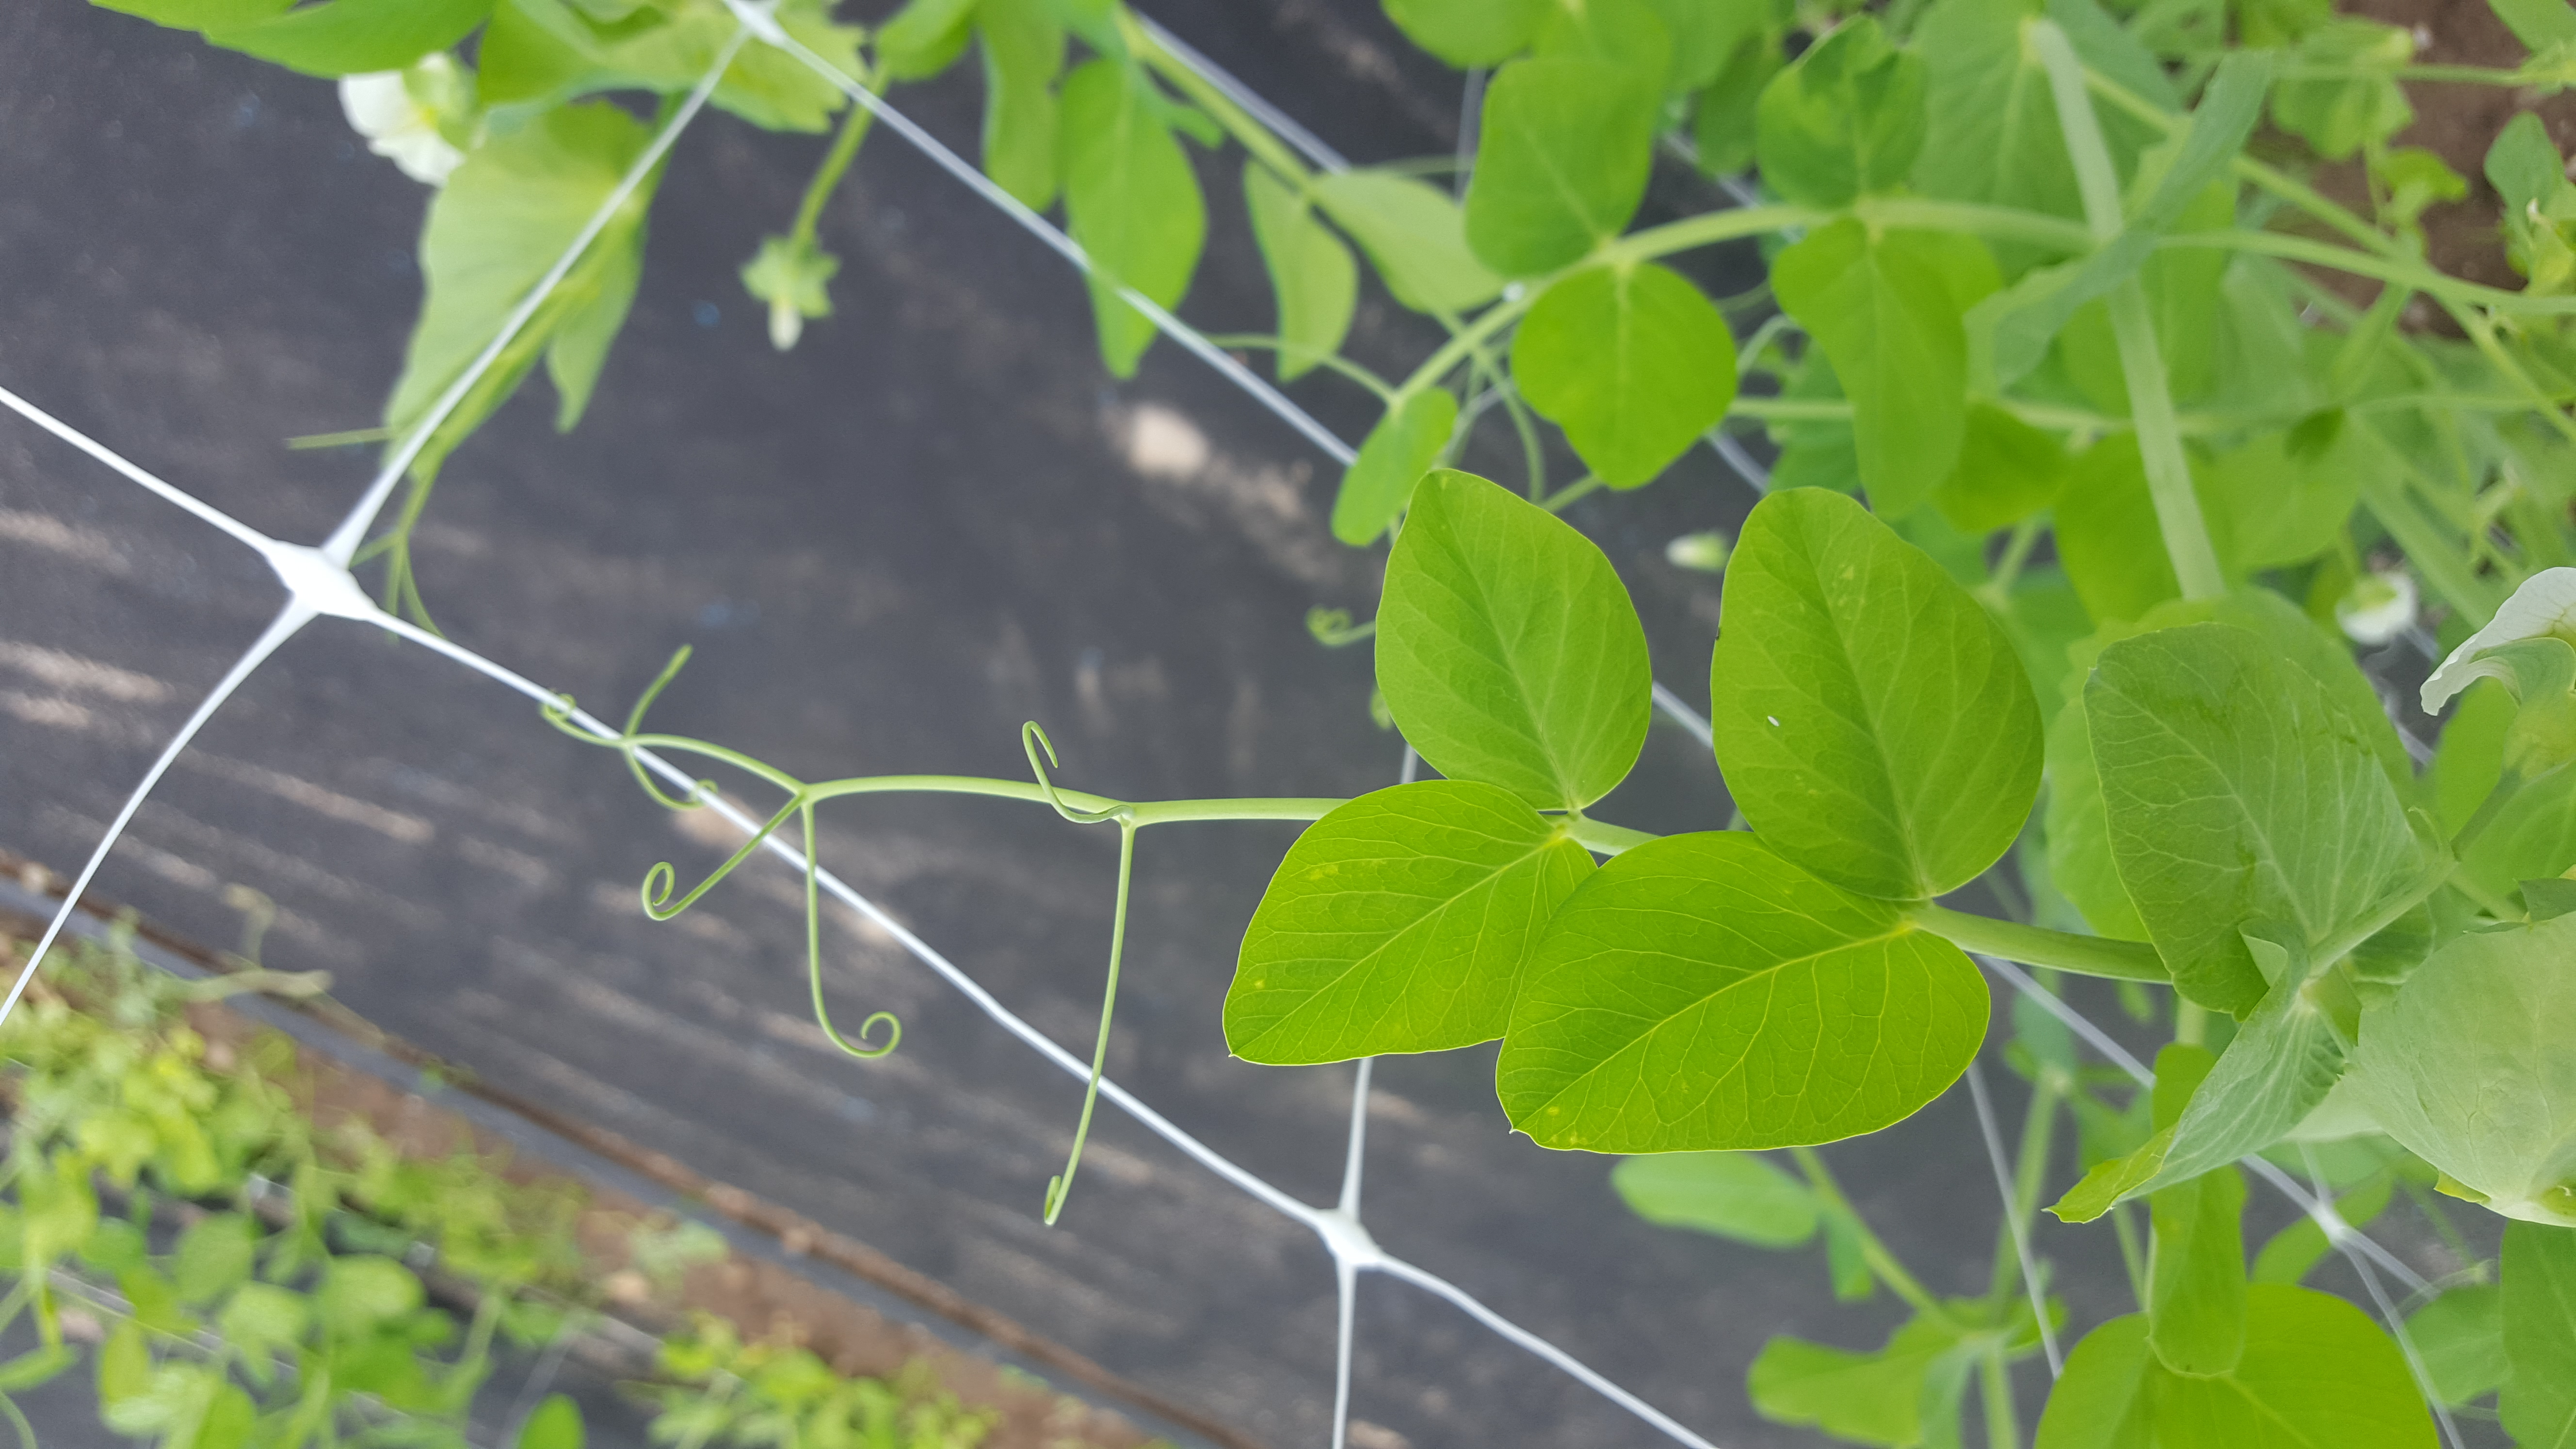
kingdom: Plantae
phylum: Tracheophyta
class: Magnoliopsida
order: Fabales
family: Fabaceae
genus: Lathyrus
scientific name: Lathyrus oleraceus
